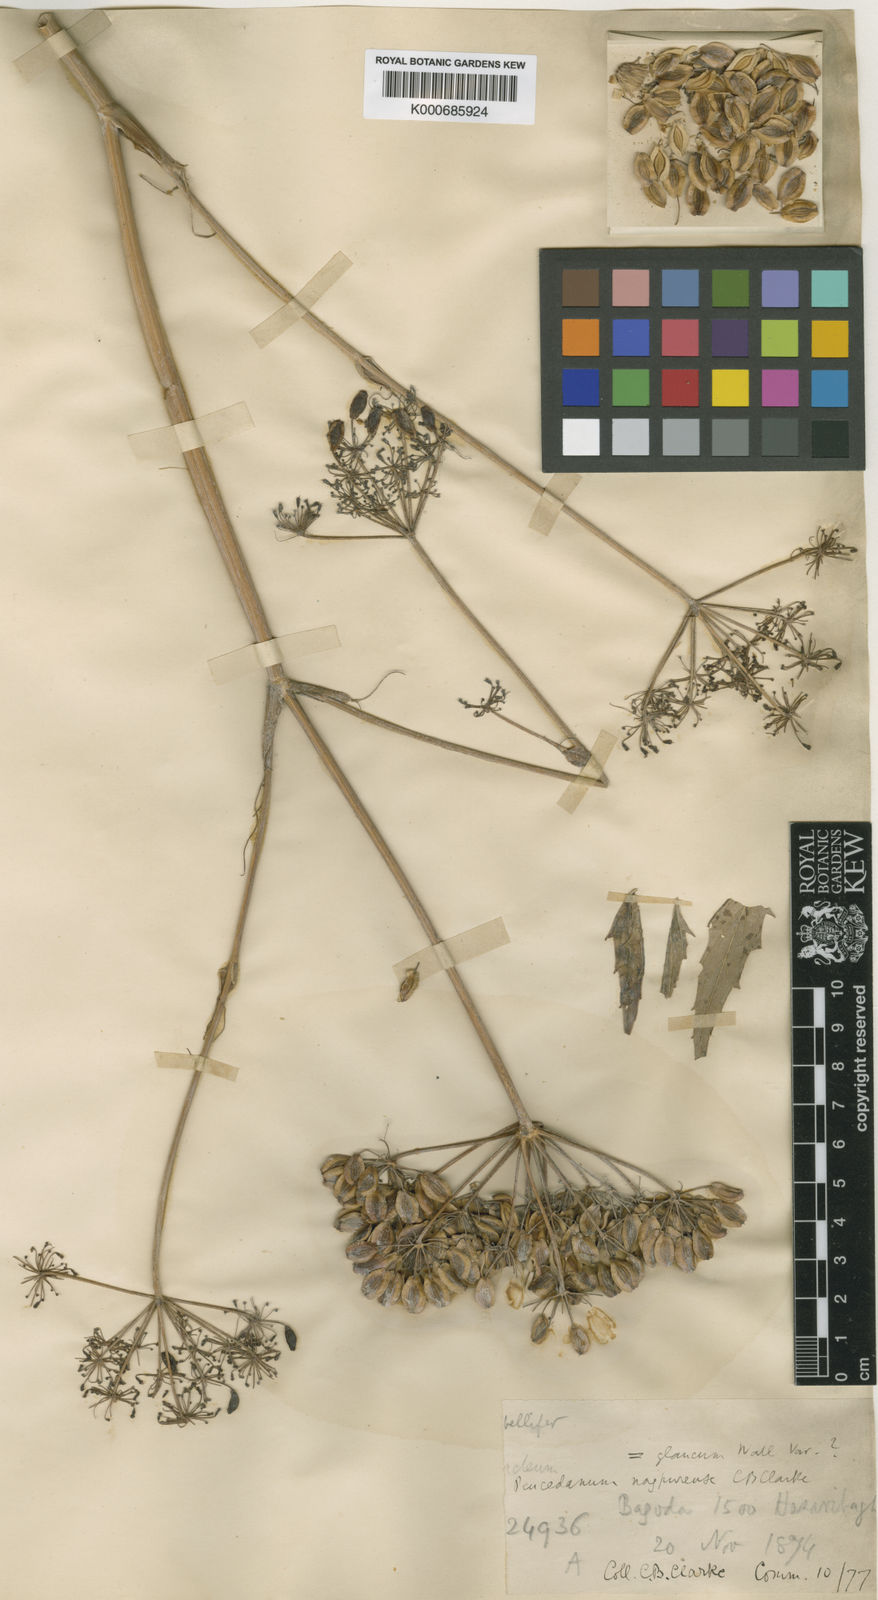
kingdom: Plantae
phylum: Tracheophyta
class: Magnoliopsida
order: Apiales
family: Apiaceae
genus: Peucedanum
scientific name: Peucedanum
